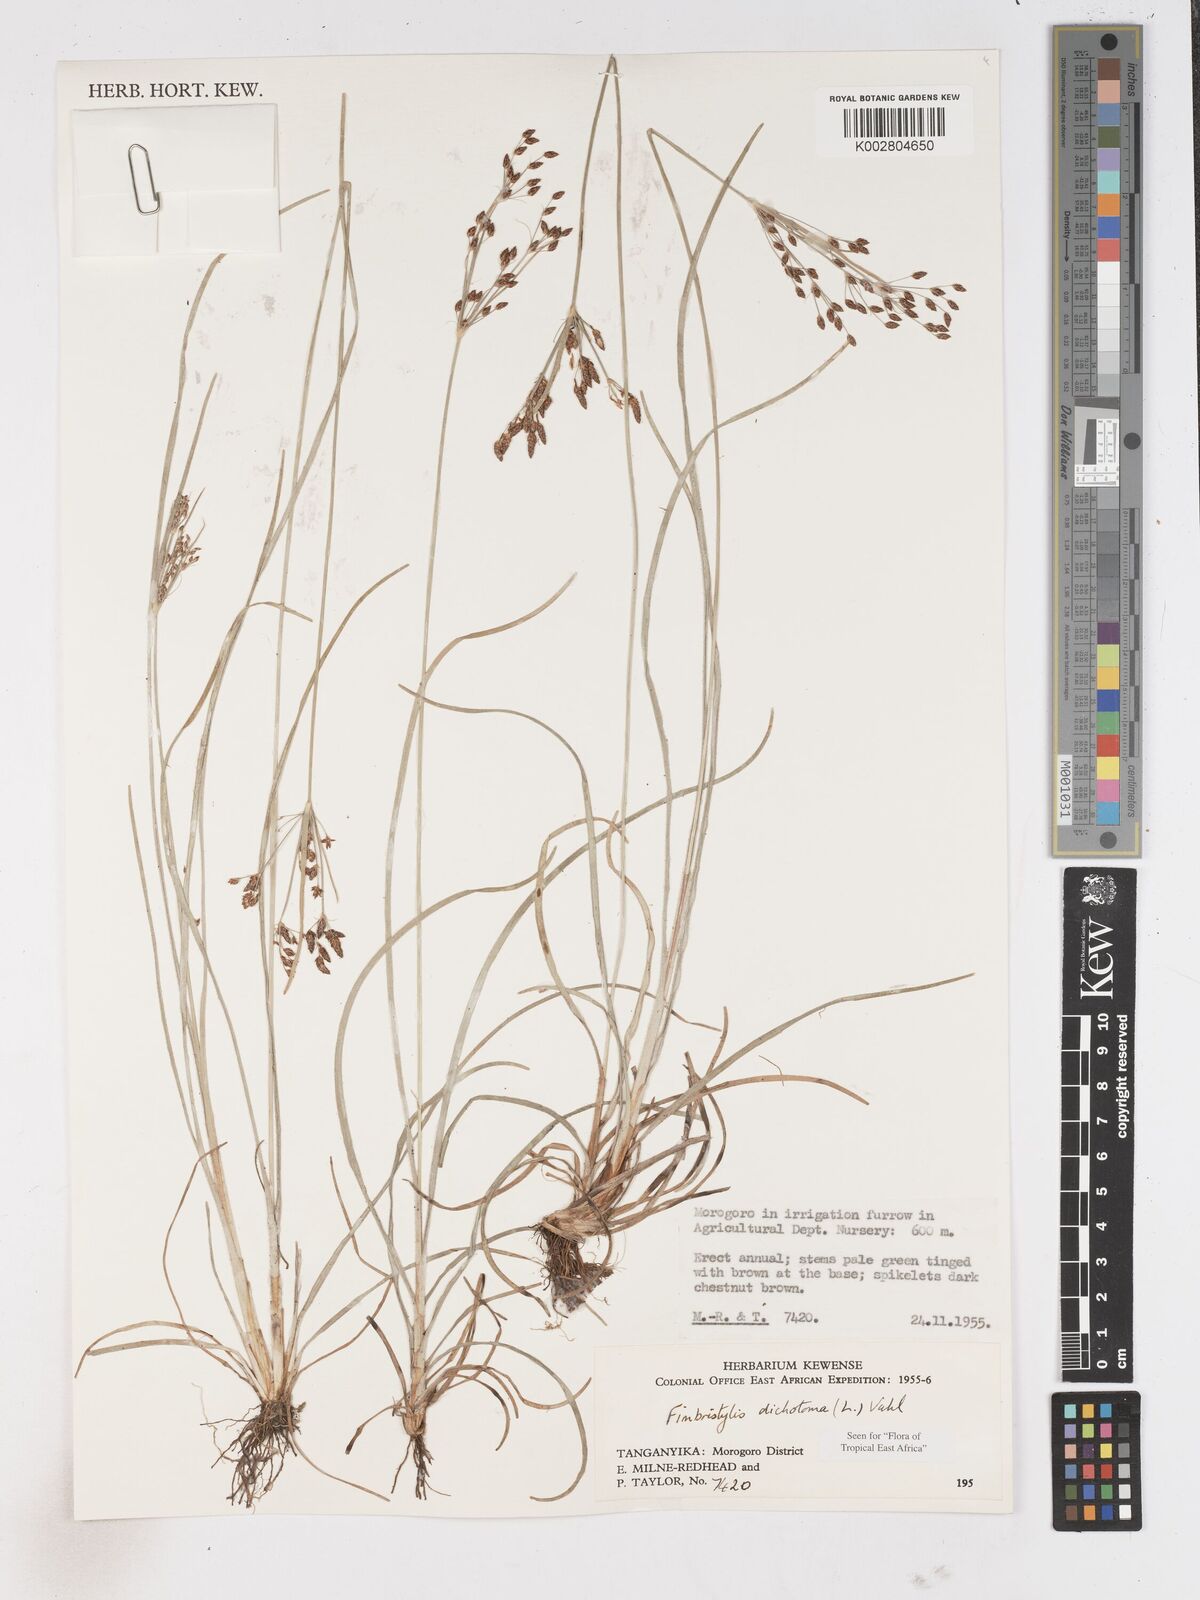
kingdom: Plantae
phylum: Tracheophyta
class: Liliopsida
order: Poales
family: Cyperaceae
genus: Fimbristylis
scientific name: Fimbristylis dichotoma
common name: Forked fimbry
